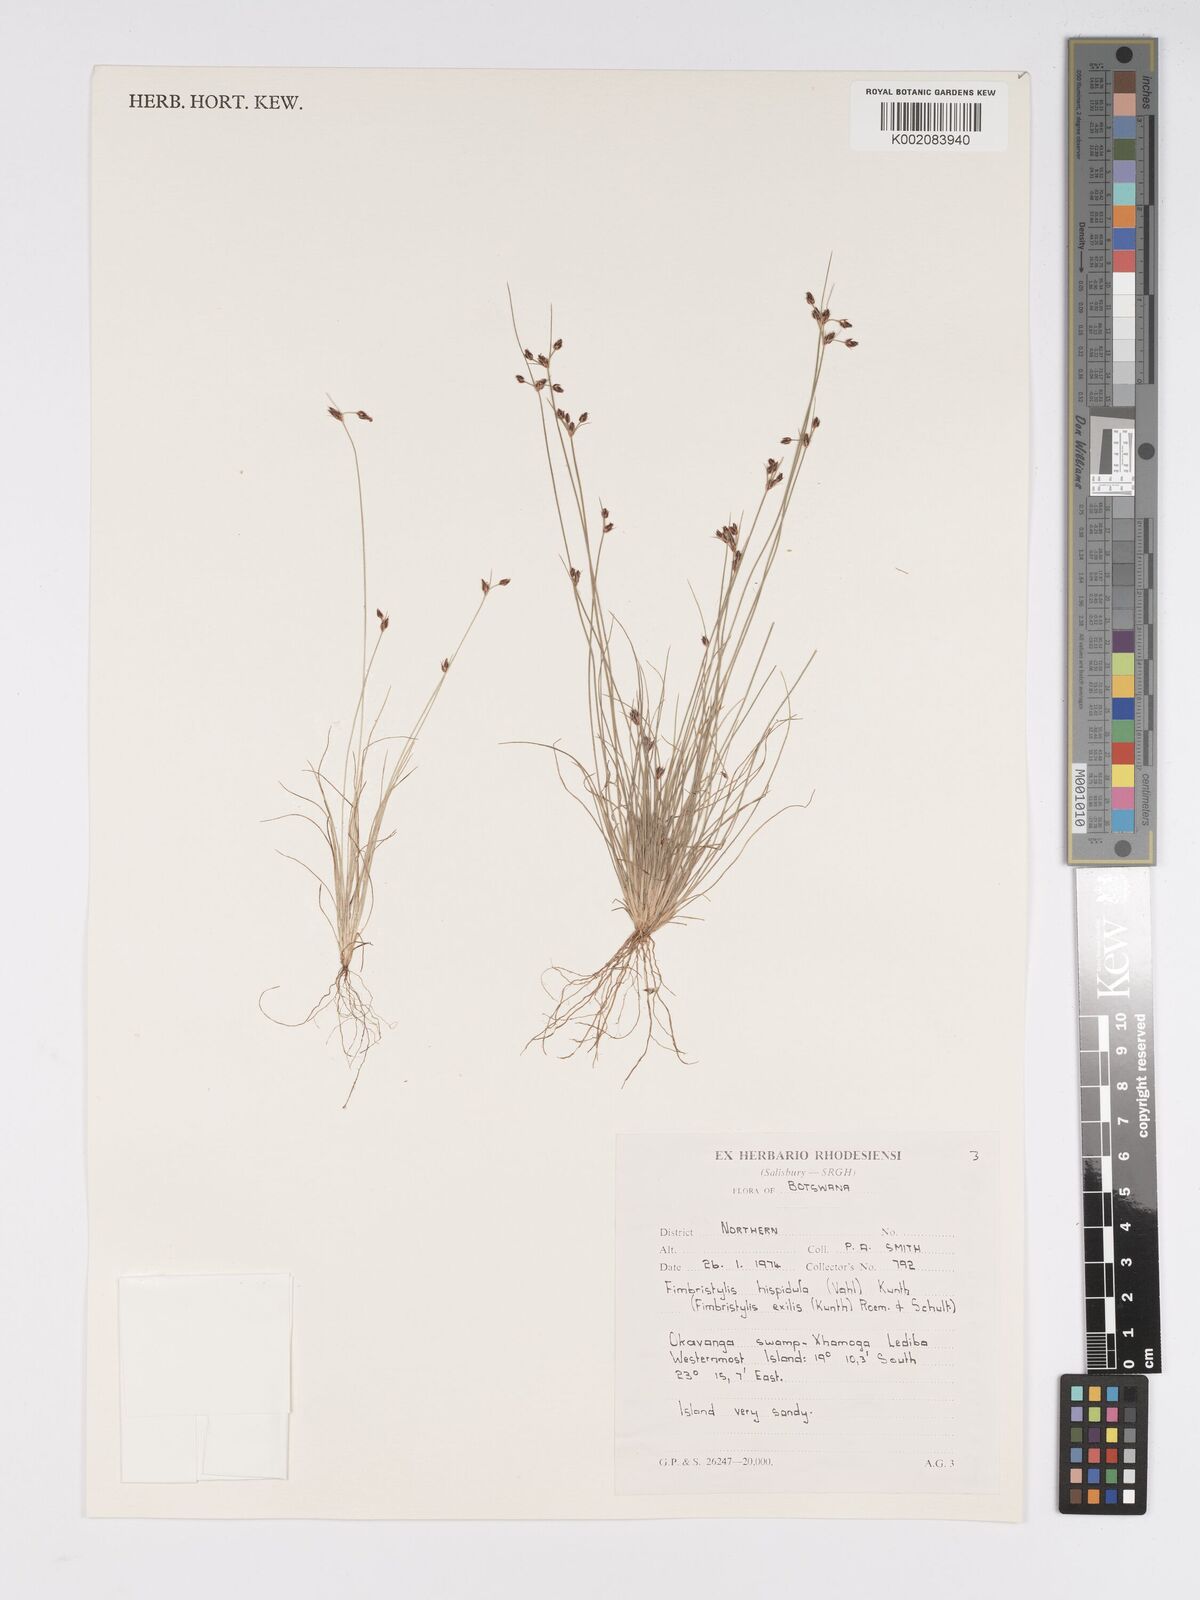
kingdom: Plantae
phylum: Tracheophyta
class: Liliopsida
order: Poales
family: Cyperaceae
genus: Bulbostylis
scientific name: Bulbostylis hispidula
